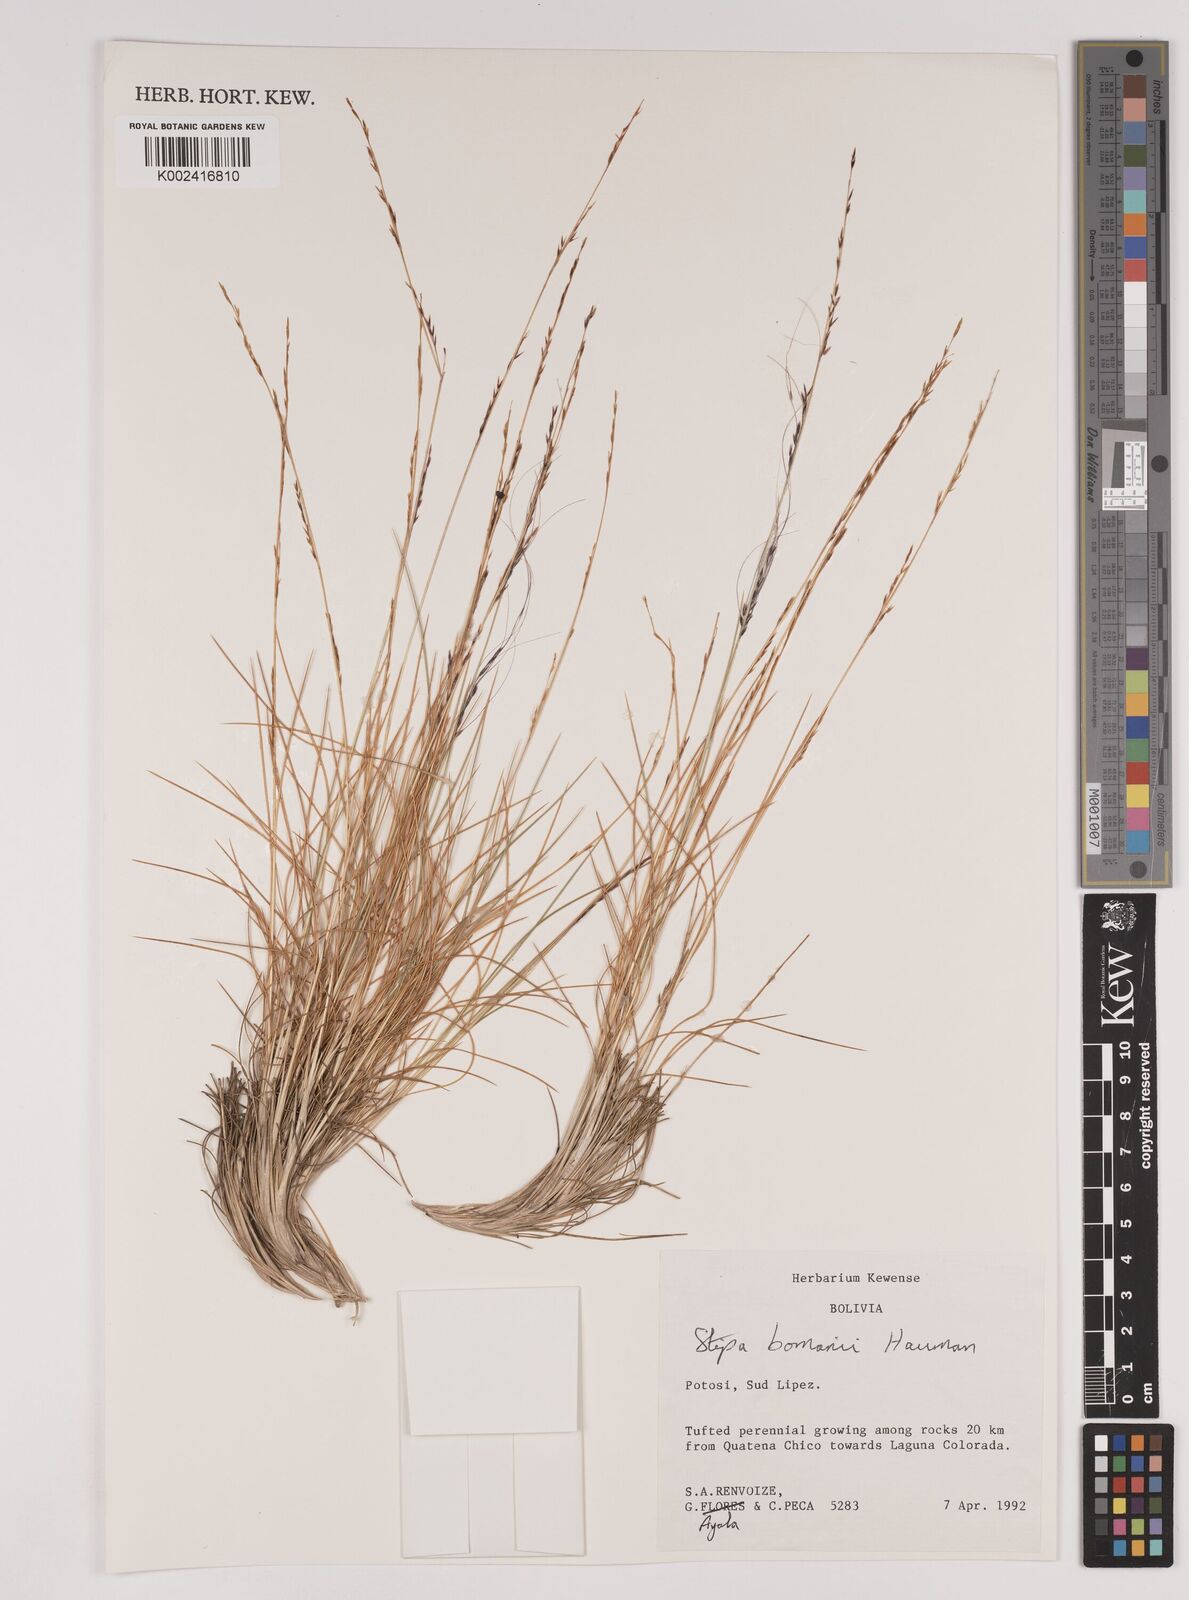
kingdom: Plantae
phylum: Tracheophyta
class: Liliopsida
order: Poales
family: Poaceae
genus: Stipa
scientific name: Stipa bomanii
